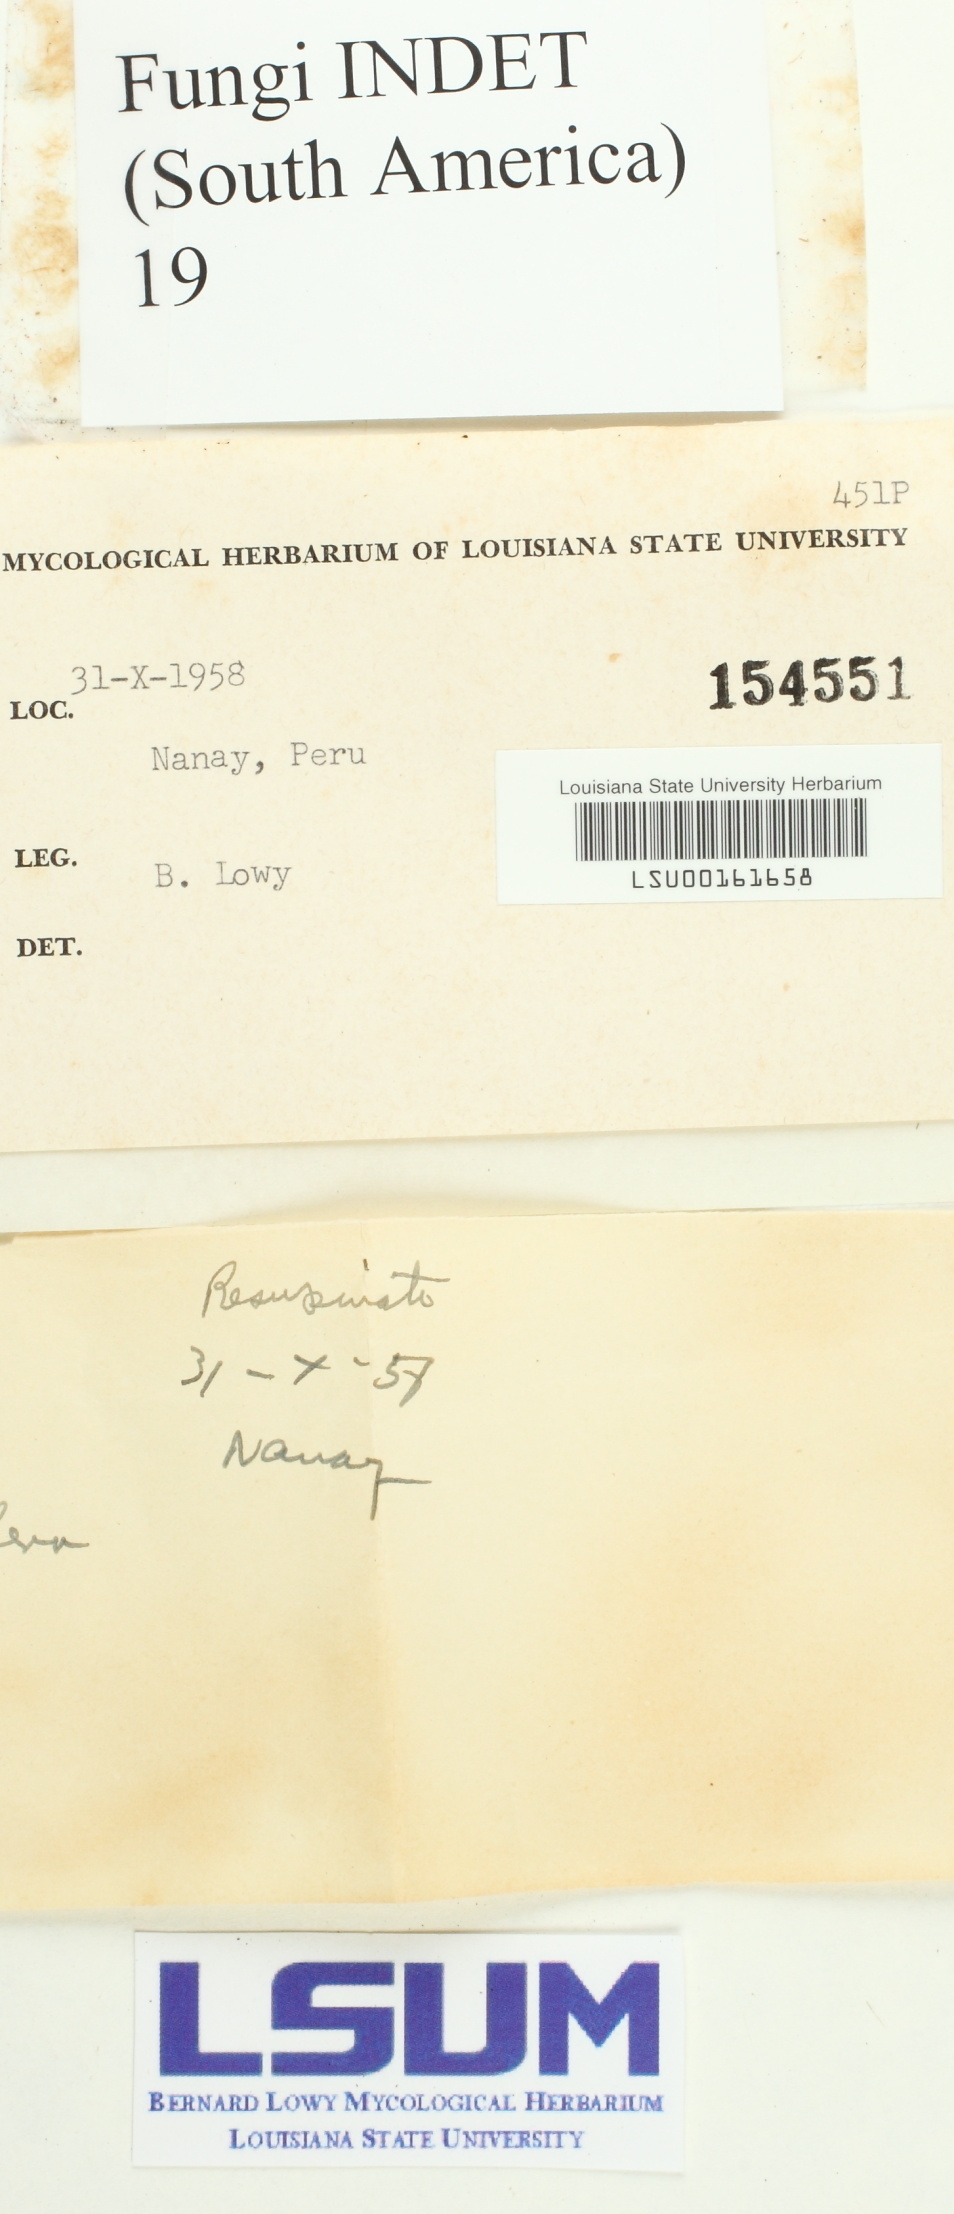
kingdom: Fungi
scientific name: Fungi
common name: Fungi
